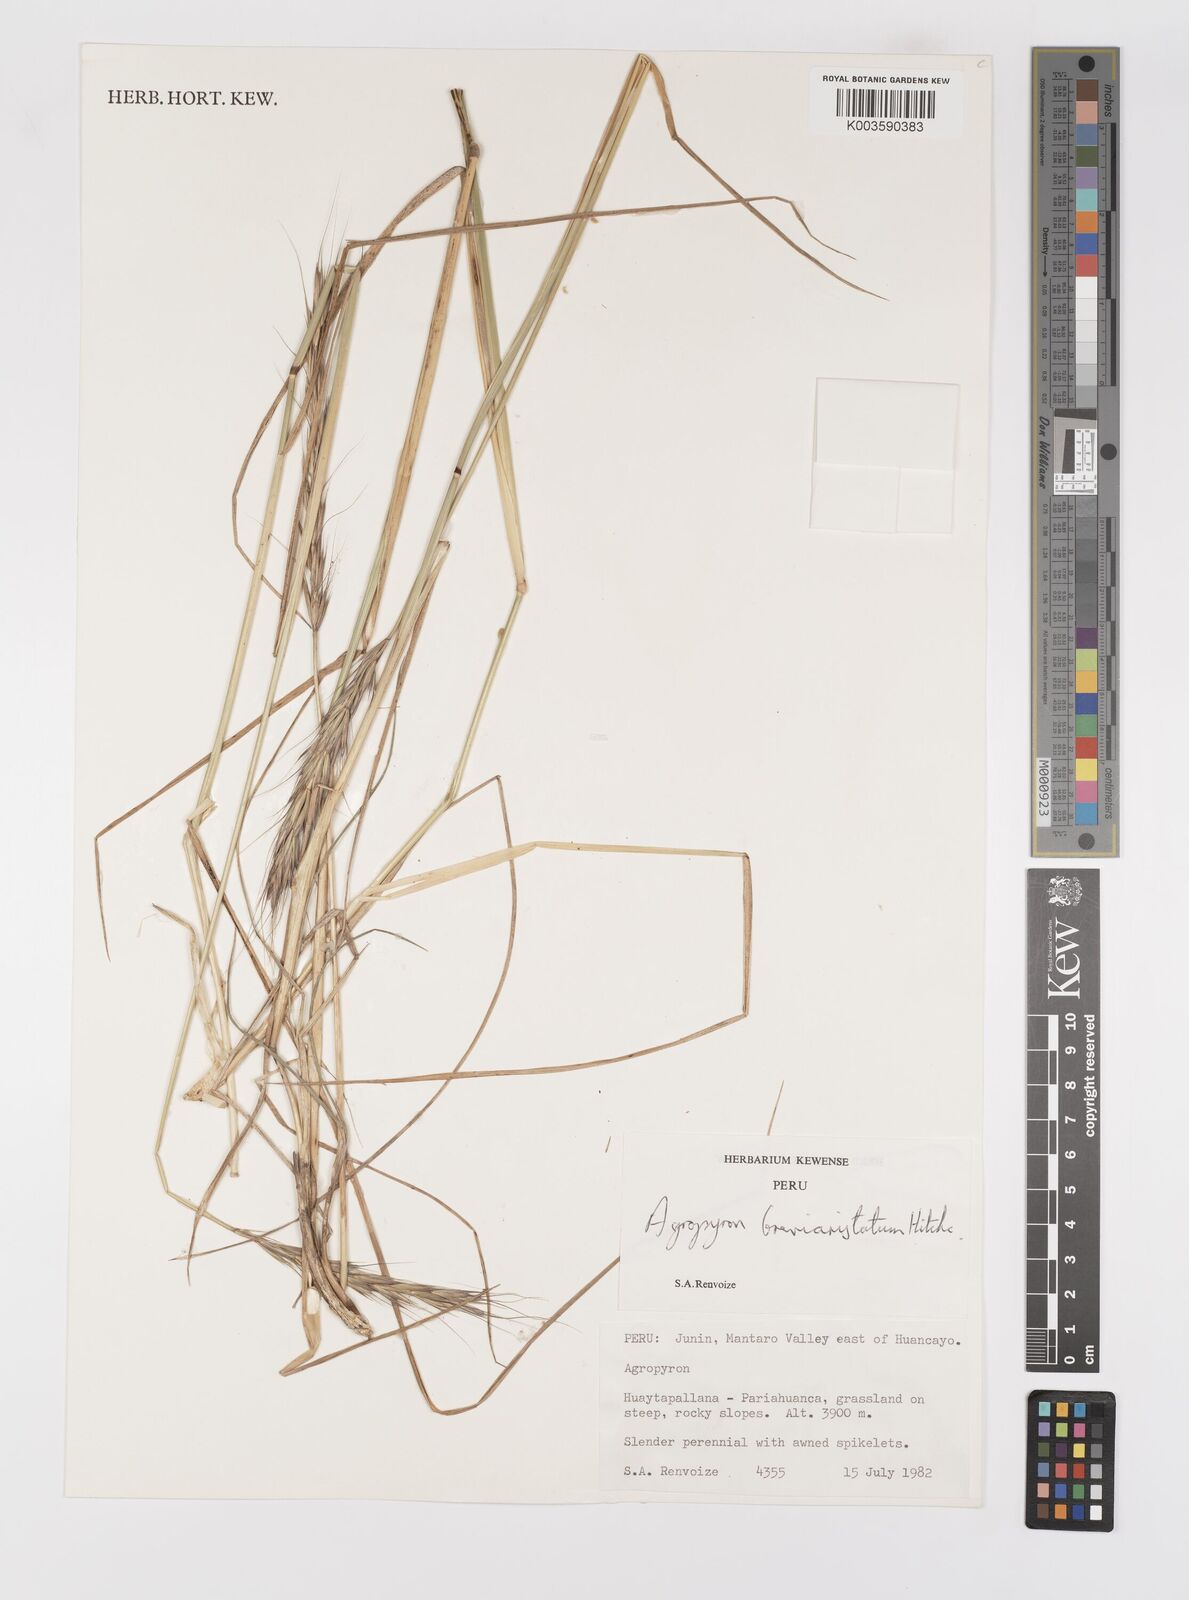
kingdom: Plantae
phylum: Tracheophyta
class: Liliopsida
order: Poales
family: Poaceae
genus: Elymus
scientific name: Elymus angulatus
